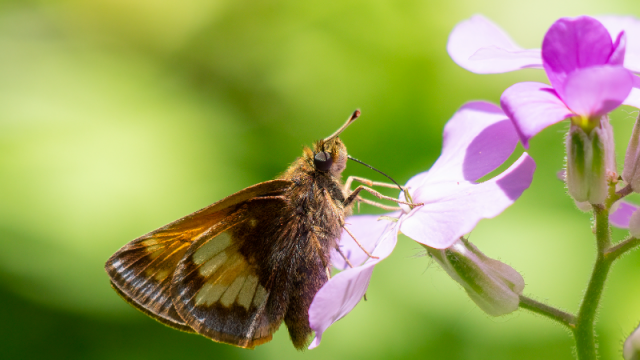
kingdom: Animalia
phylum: Arthropoda
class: Insecta
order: Lepidoptera
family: Hesperiidae
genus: Lon
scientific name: Lon hobomok
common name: Hobomok Skipper
